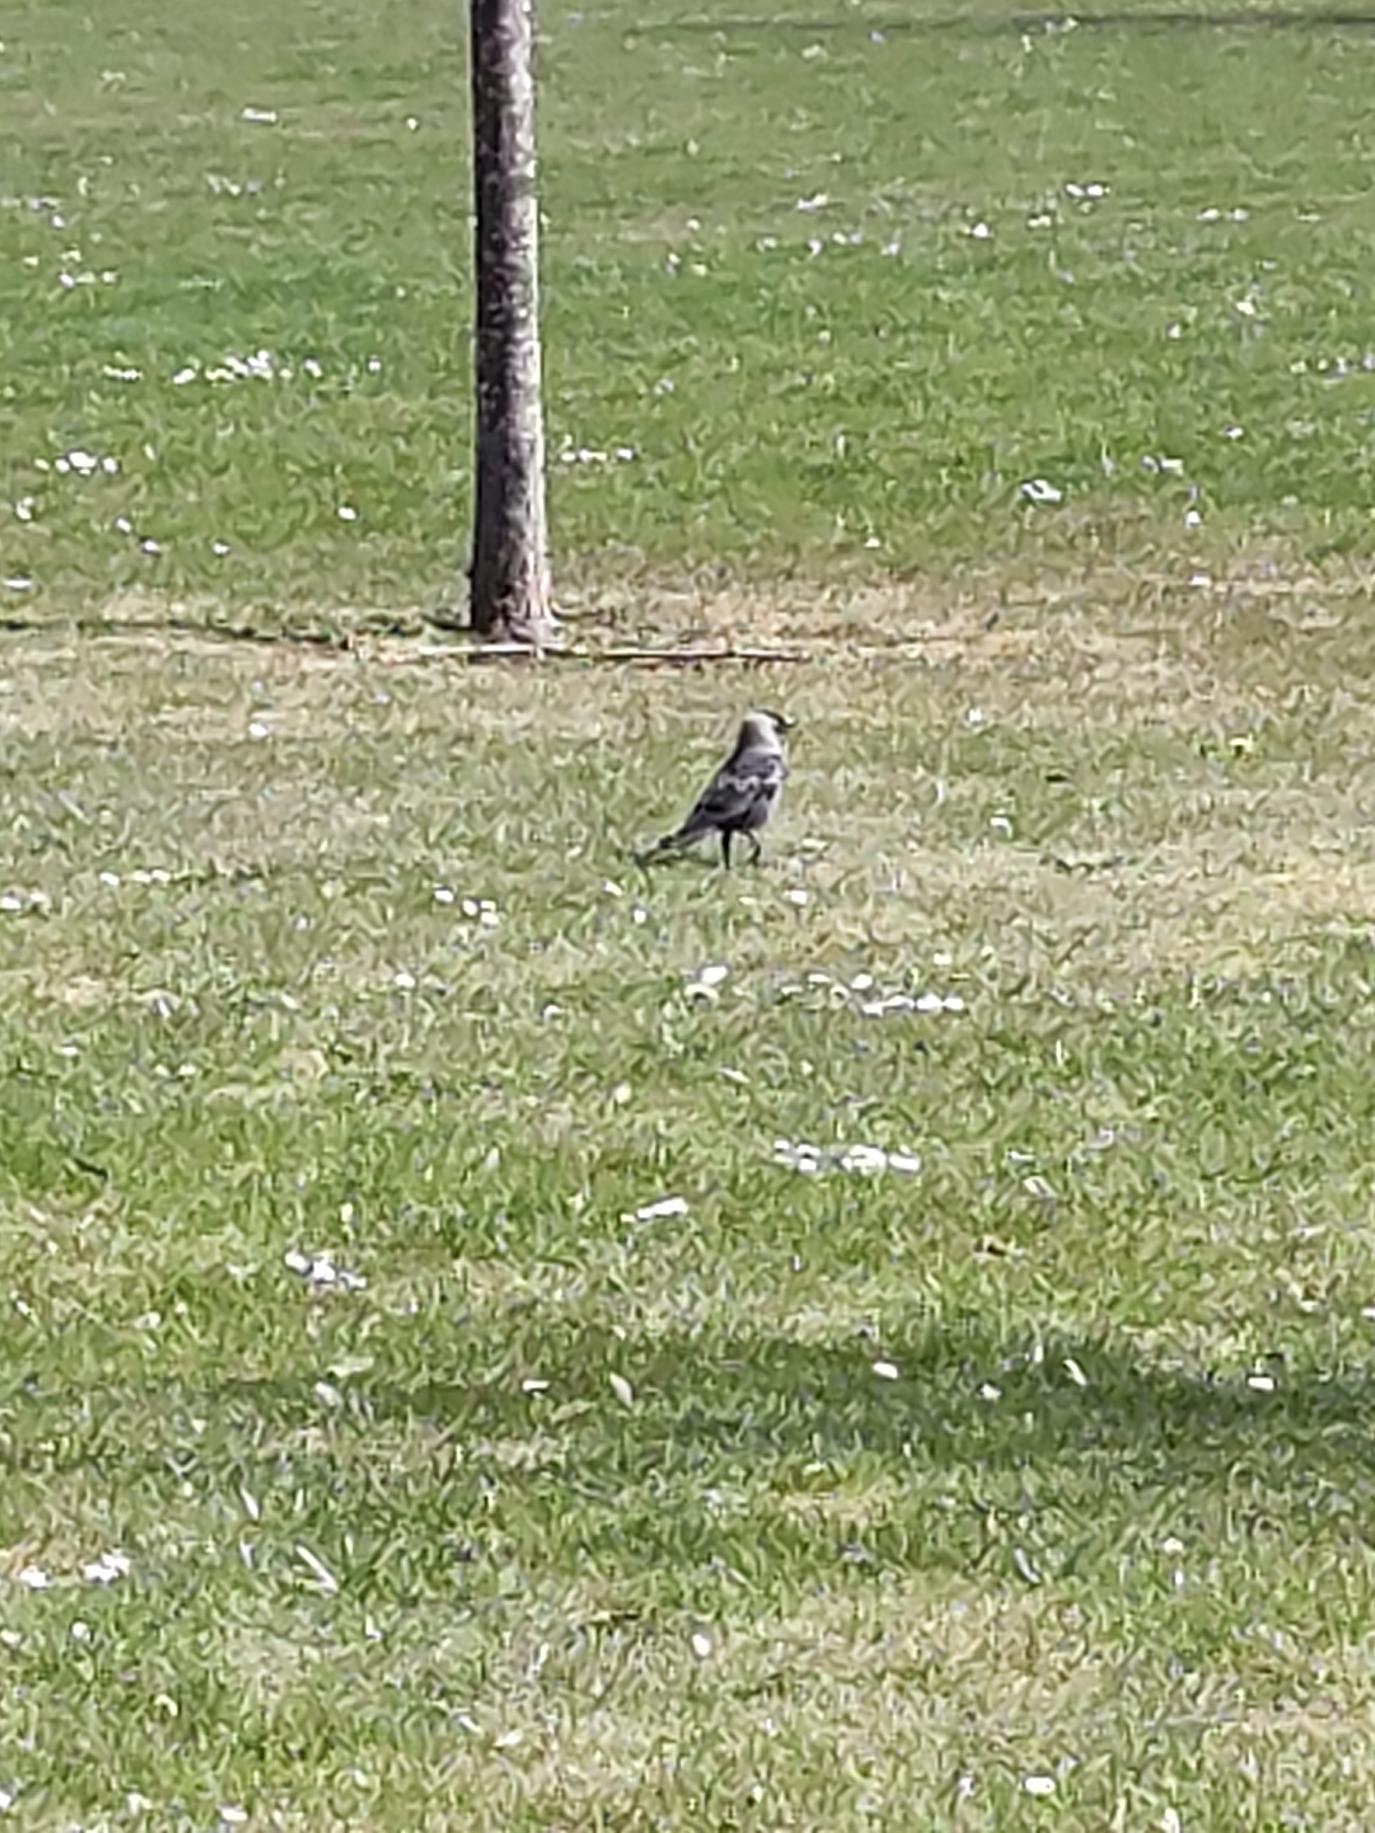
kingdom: Animalia
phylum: Chordata
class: Aves
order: Passeriformes
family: Corvidae
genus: Coloeus
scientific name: Coloeus monedula
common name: Allike
